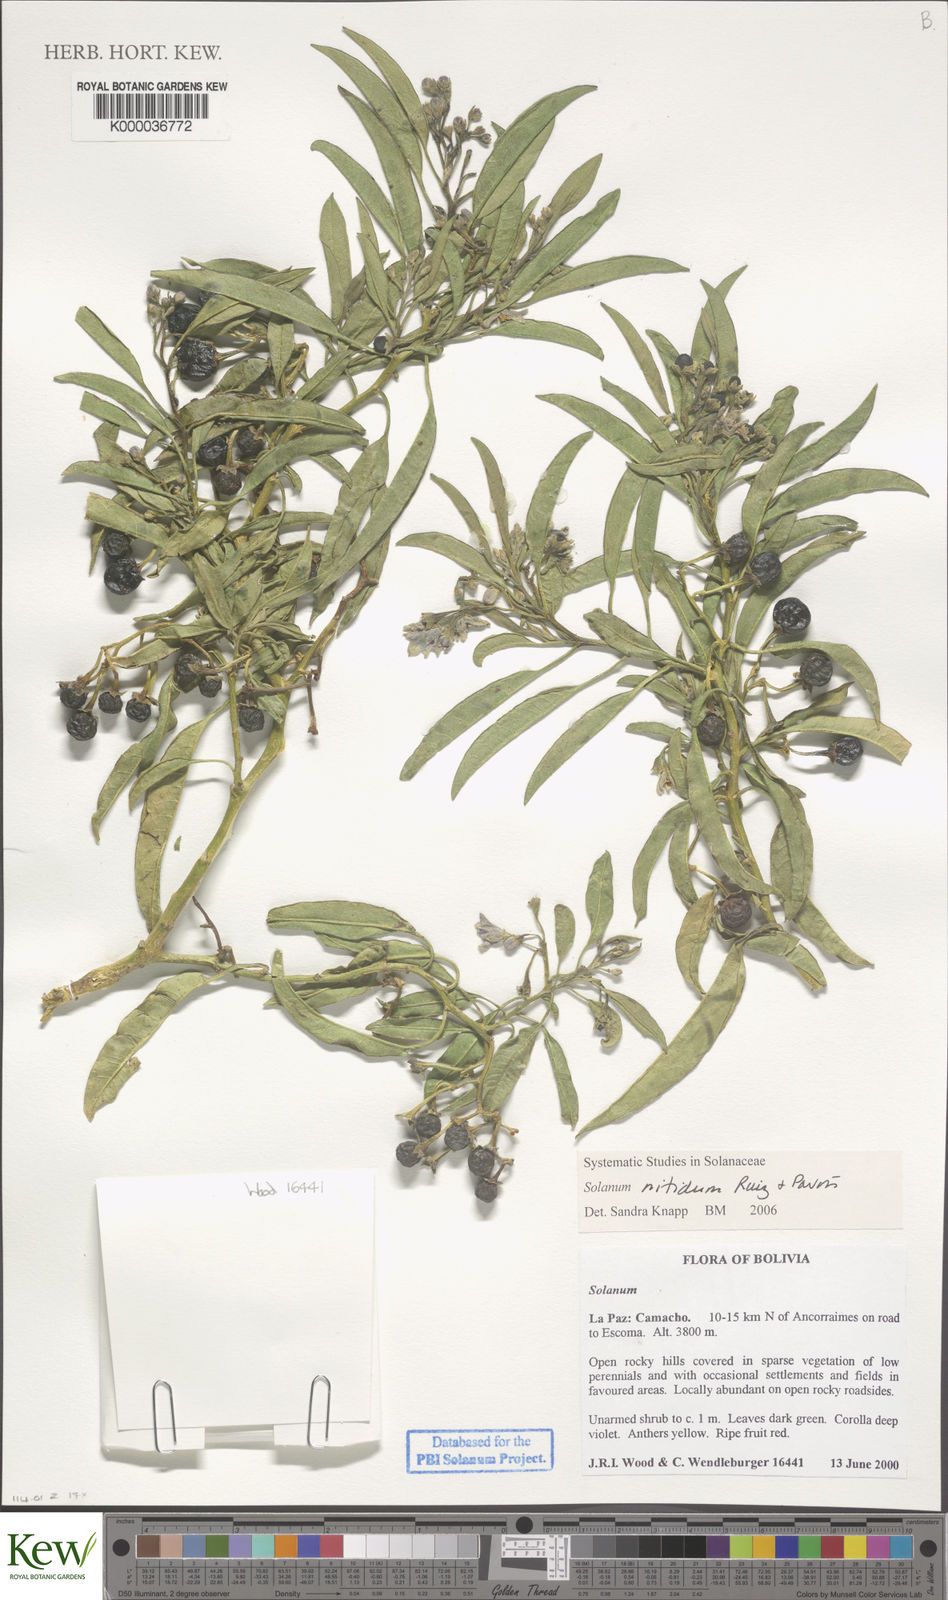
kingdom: Plantae
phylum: Tracheophyta
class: Magnoliopsida
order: Solanales
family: Solanaceae
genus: Solanum
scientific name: Solanum nitidum
